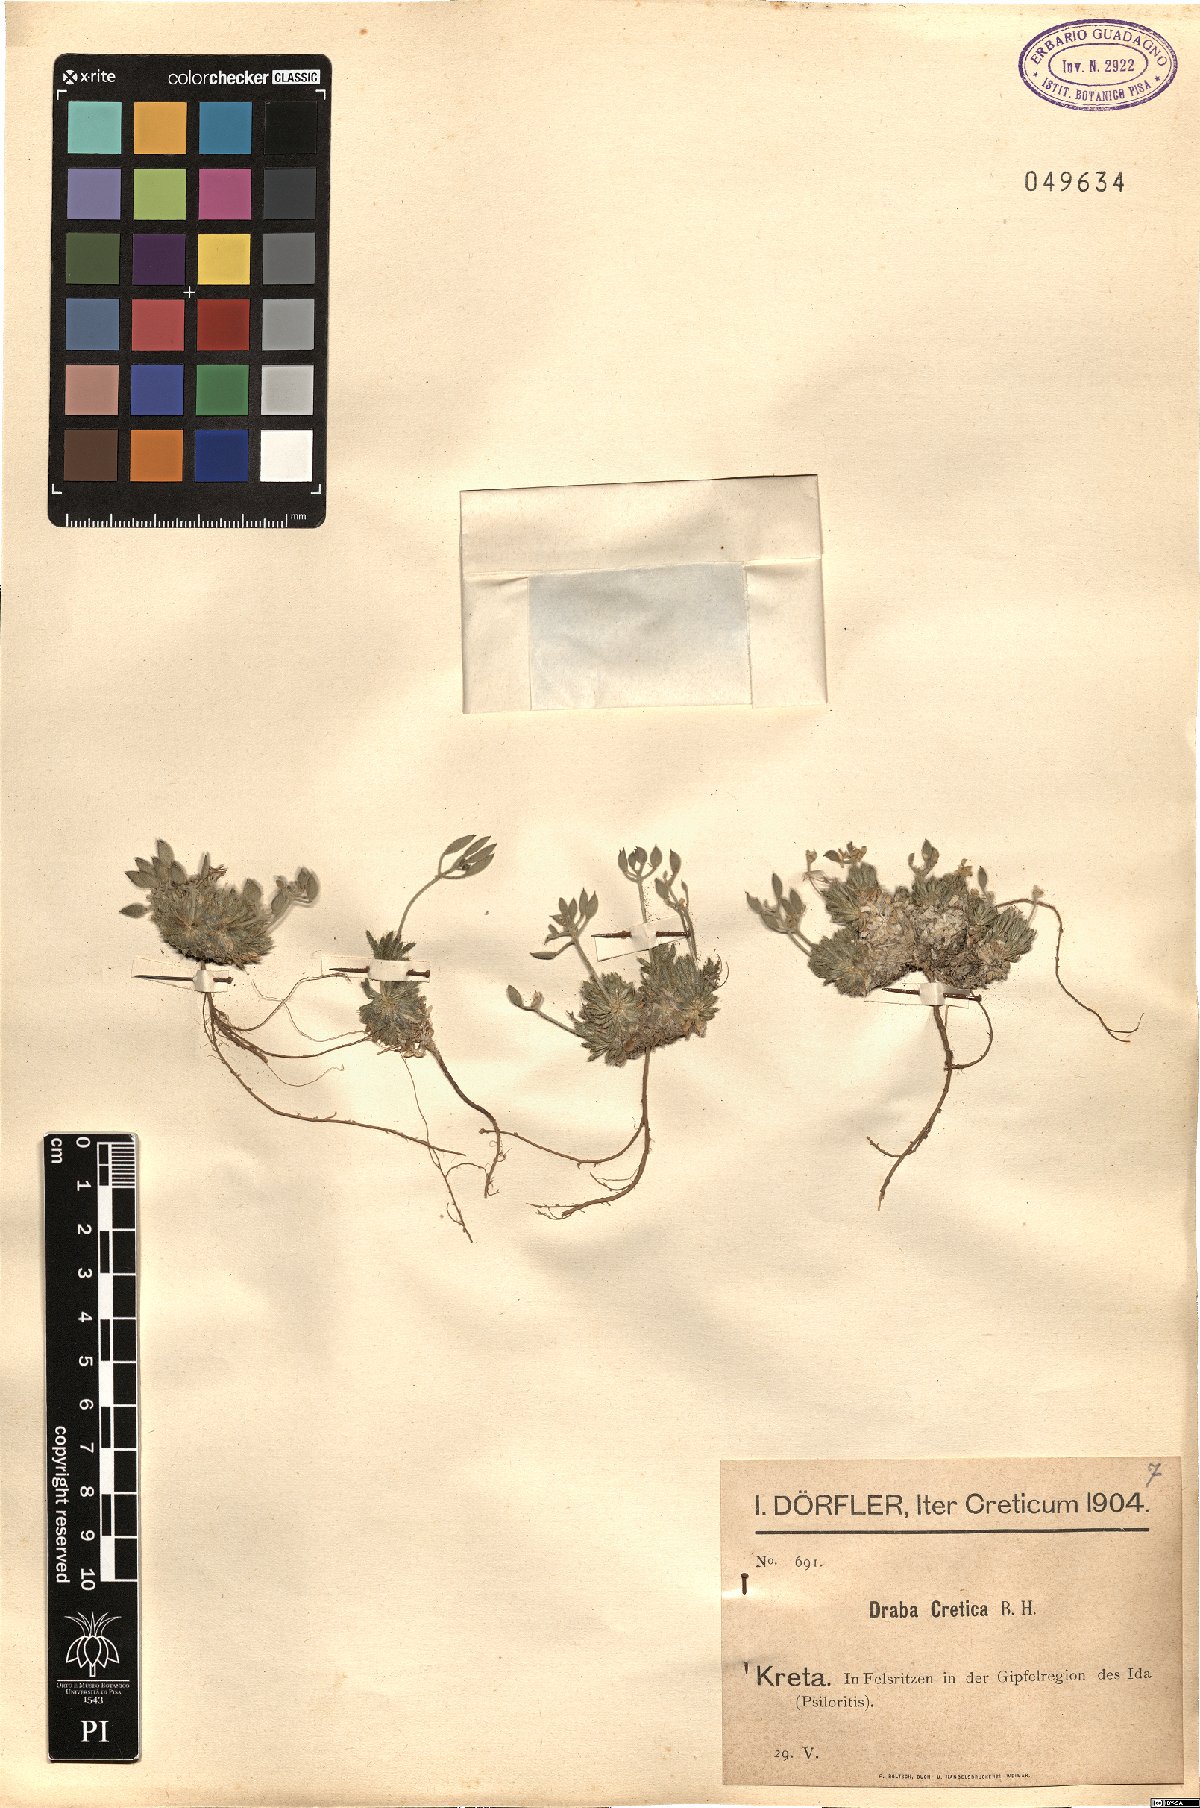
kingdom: Plantae
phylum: Tracheophyta
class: Magnoliopsida
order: Brassicales
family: Brassicaceae
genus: Draba
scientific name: Draba cretica
